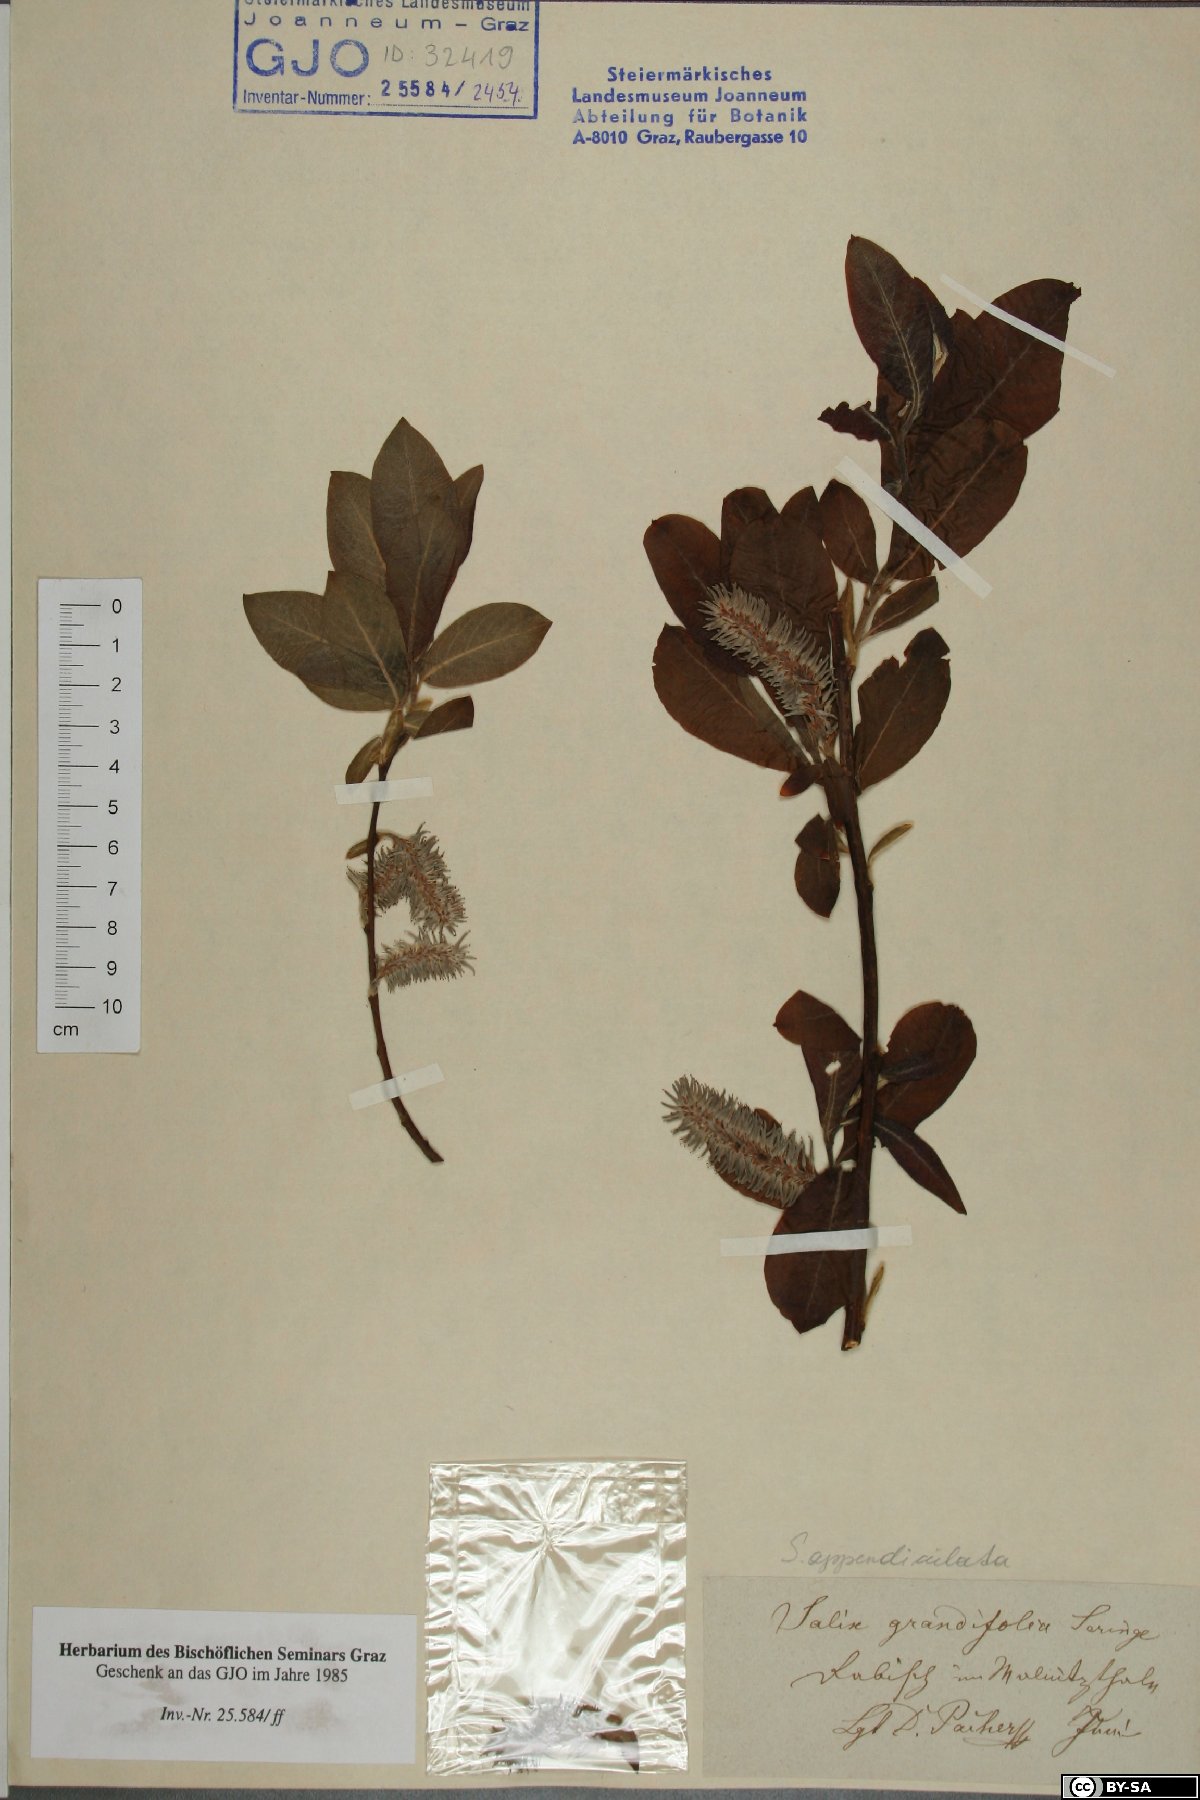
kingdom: Plantae
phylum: Tracheophyta
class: Magnoliopsida
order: Malpighiales
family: Salicaceae
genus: Salix
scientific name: Salix appendiculata
